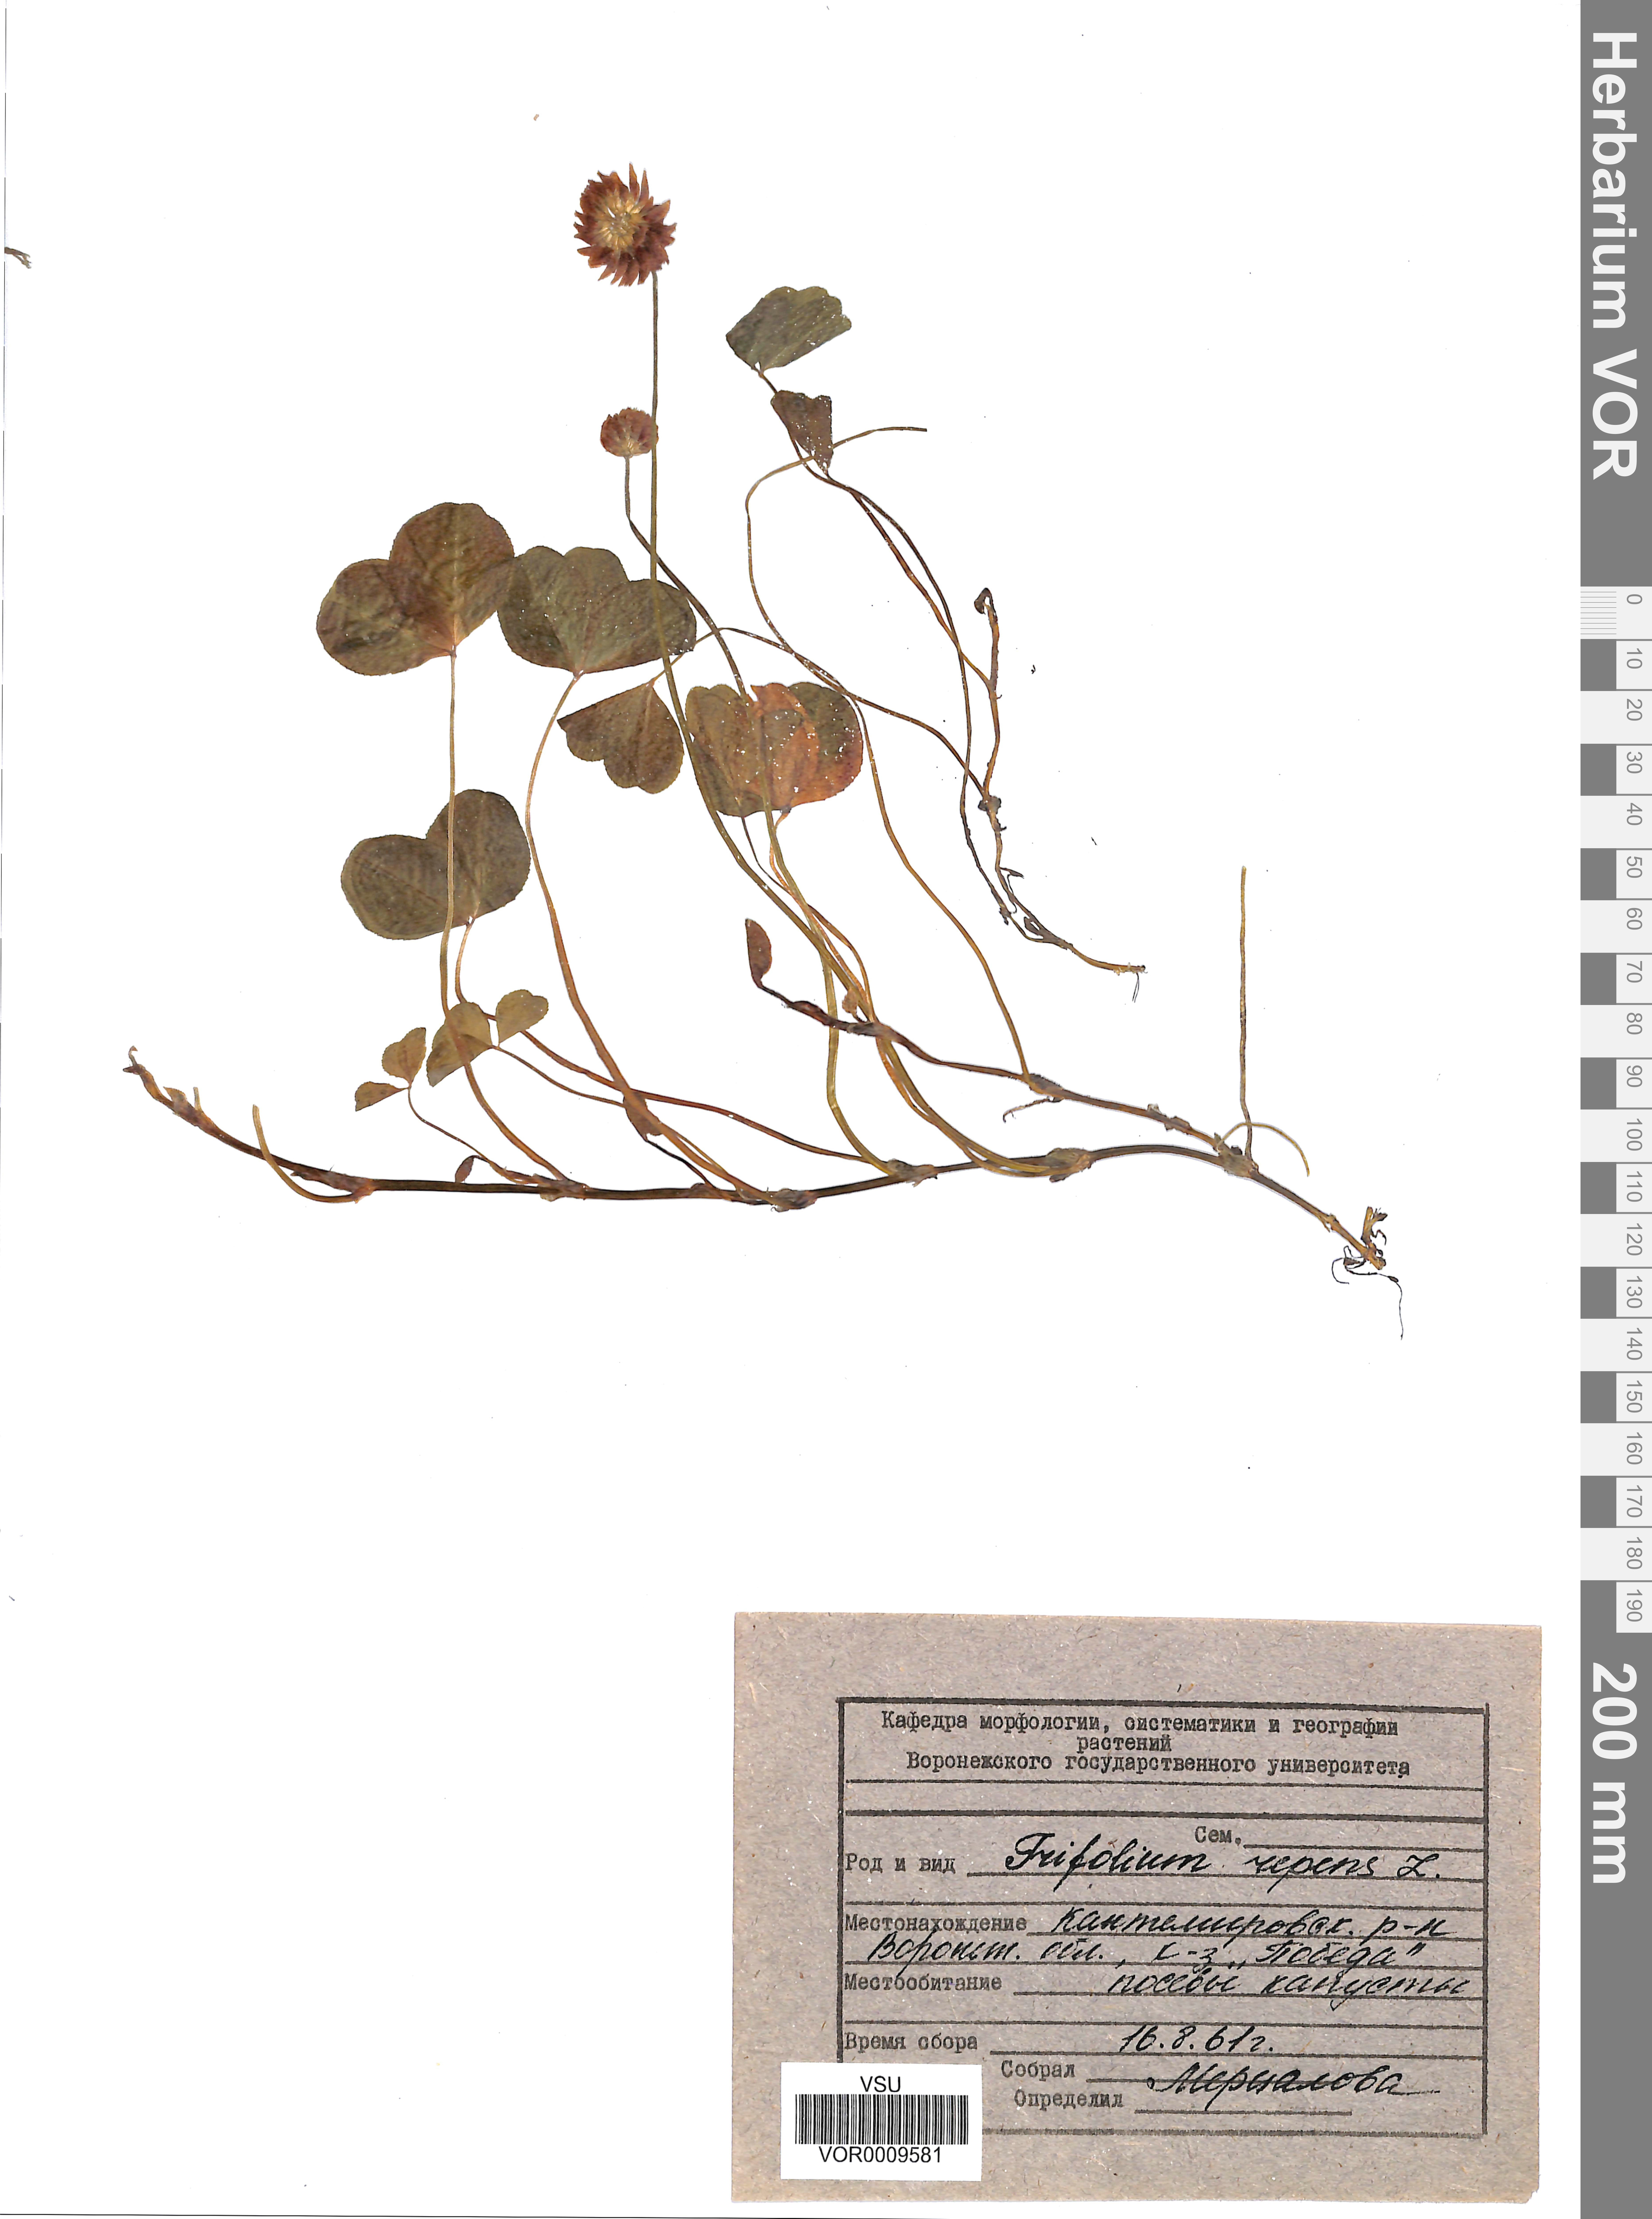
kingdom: Plantae
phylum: Tracheophyta
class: Magnoliopsida
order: Fabales
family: Fabaceae
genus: Trifolium
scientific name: Trifolium repens
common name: White clover
